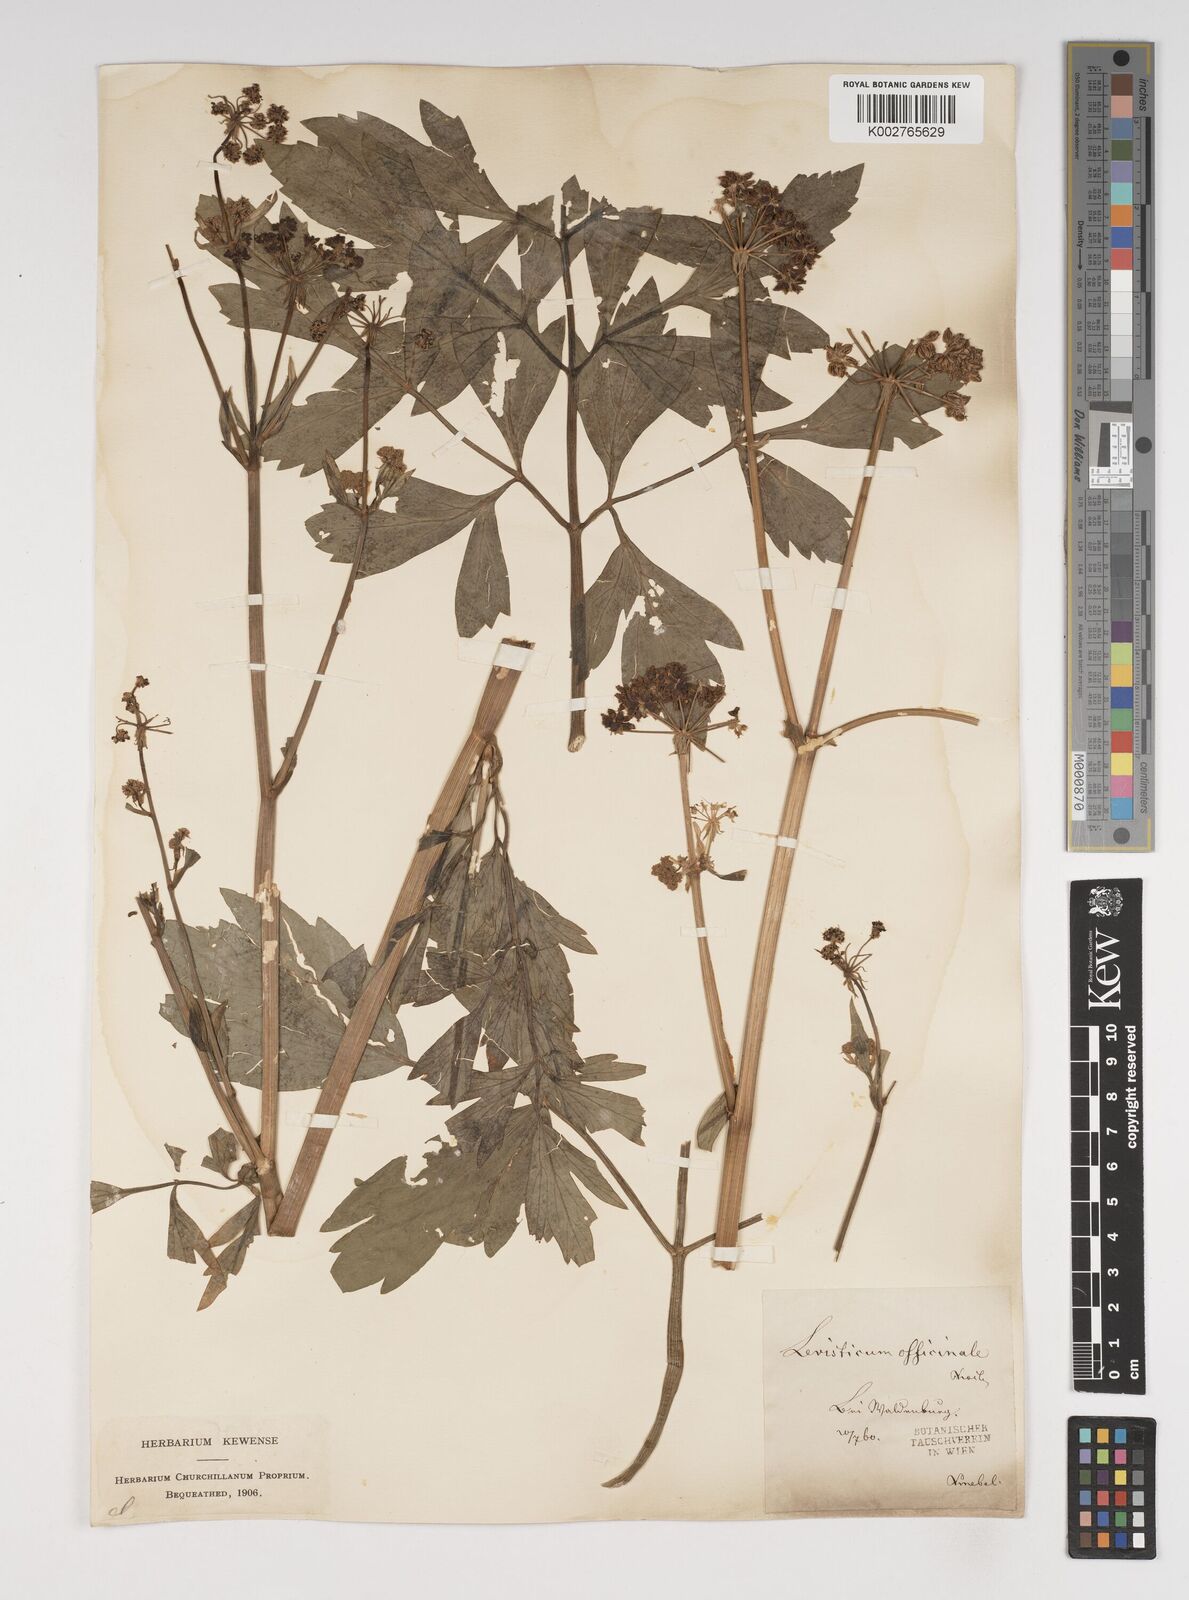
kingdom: Plantae
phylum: Tracheophyta
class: Magnoliopsida
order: Apiales
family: Apiaceae
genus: Levisticum
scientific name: Levisticum officinale
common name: Lovage
